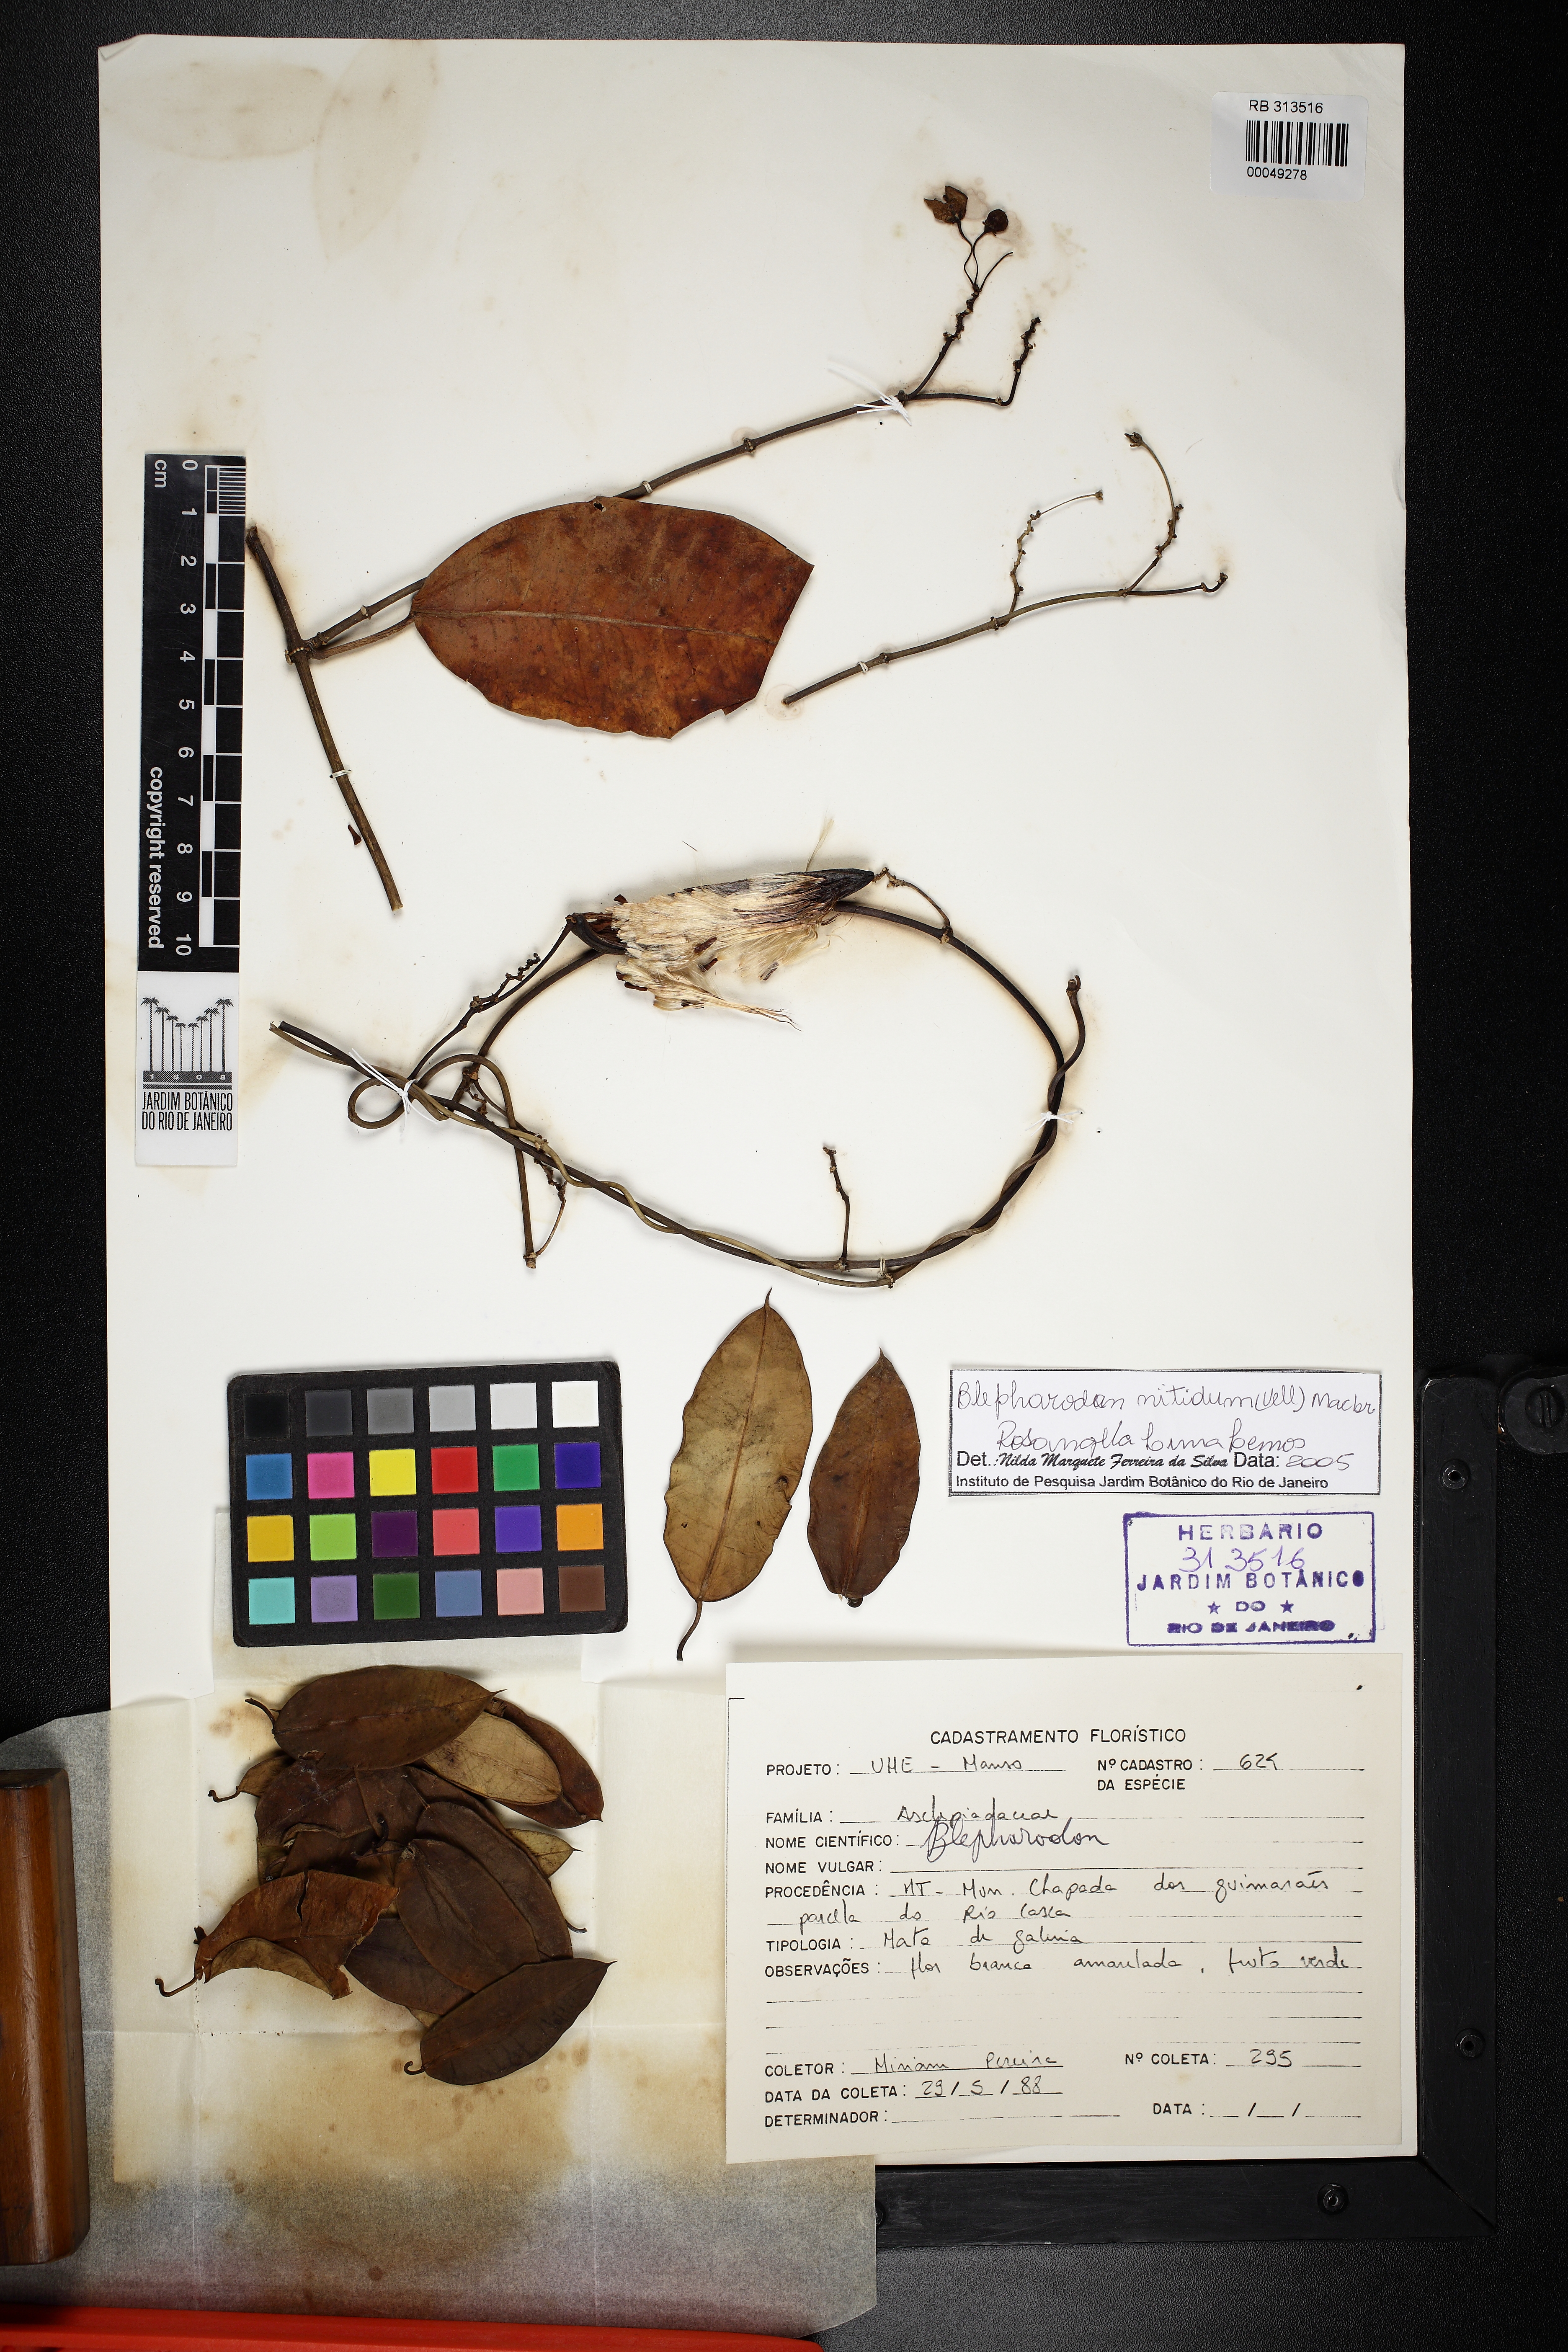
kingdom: Plantae
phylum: Tracheophyta
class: Magnoliopsida
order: Gentianales
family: Apocynaceae
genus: Blepharodon
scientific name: Blepharodon pictum
